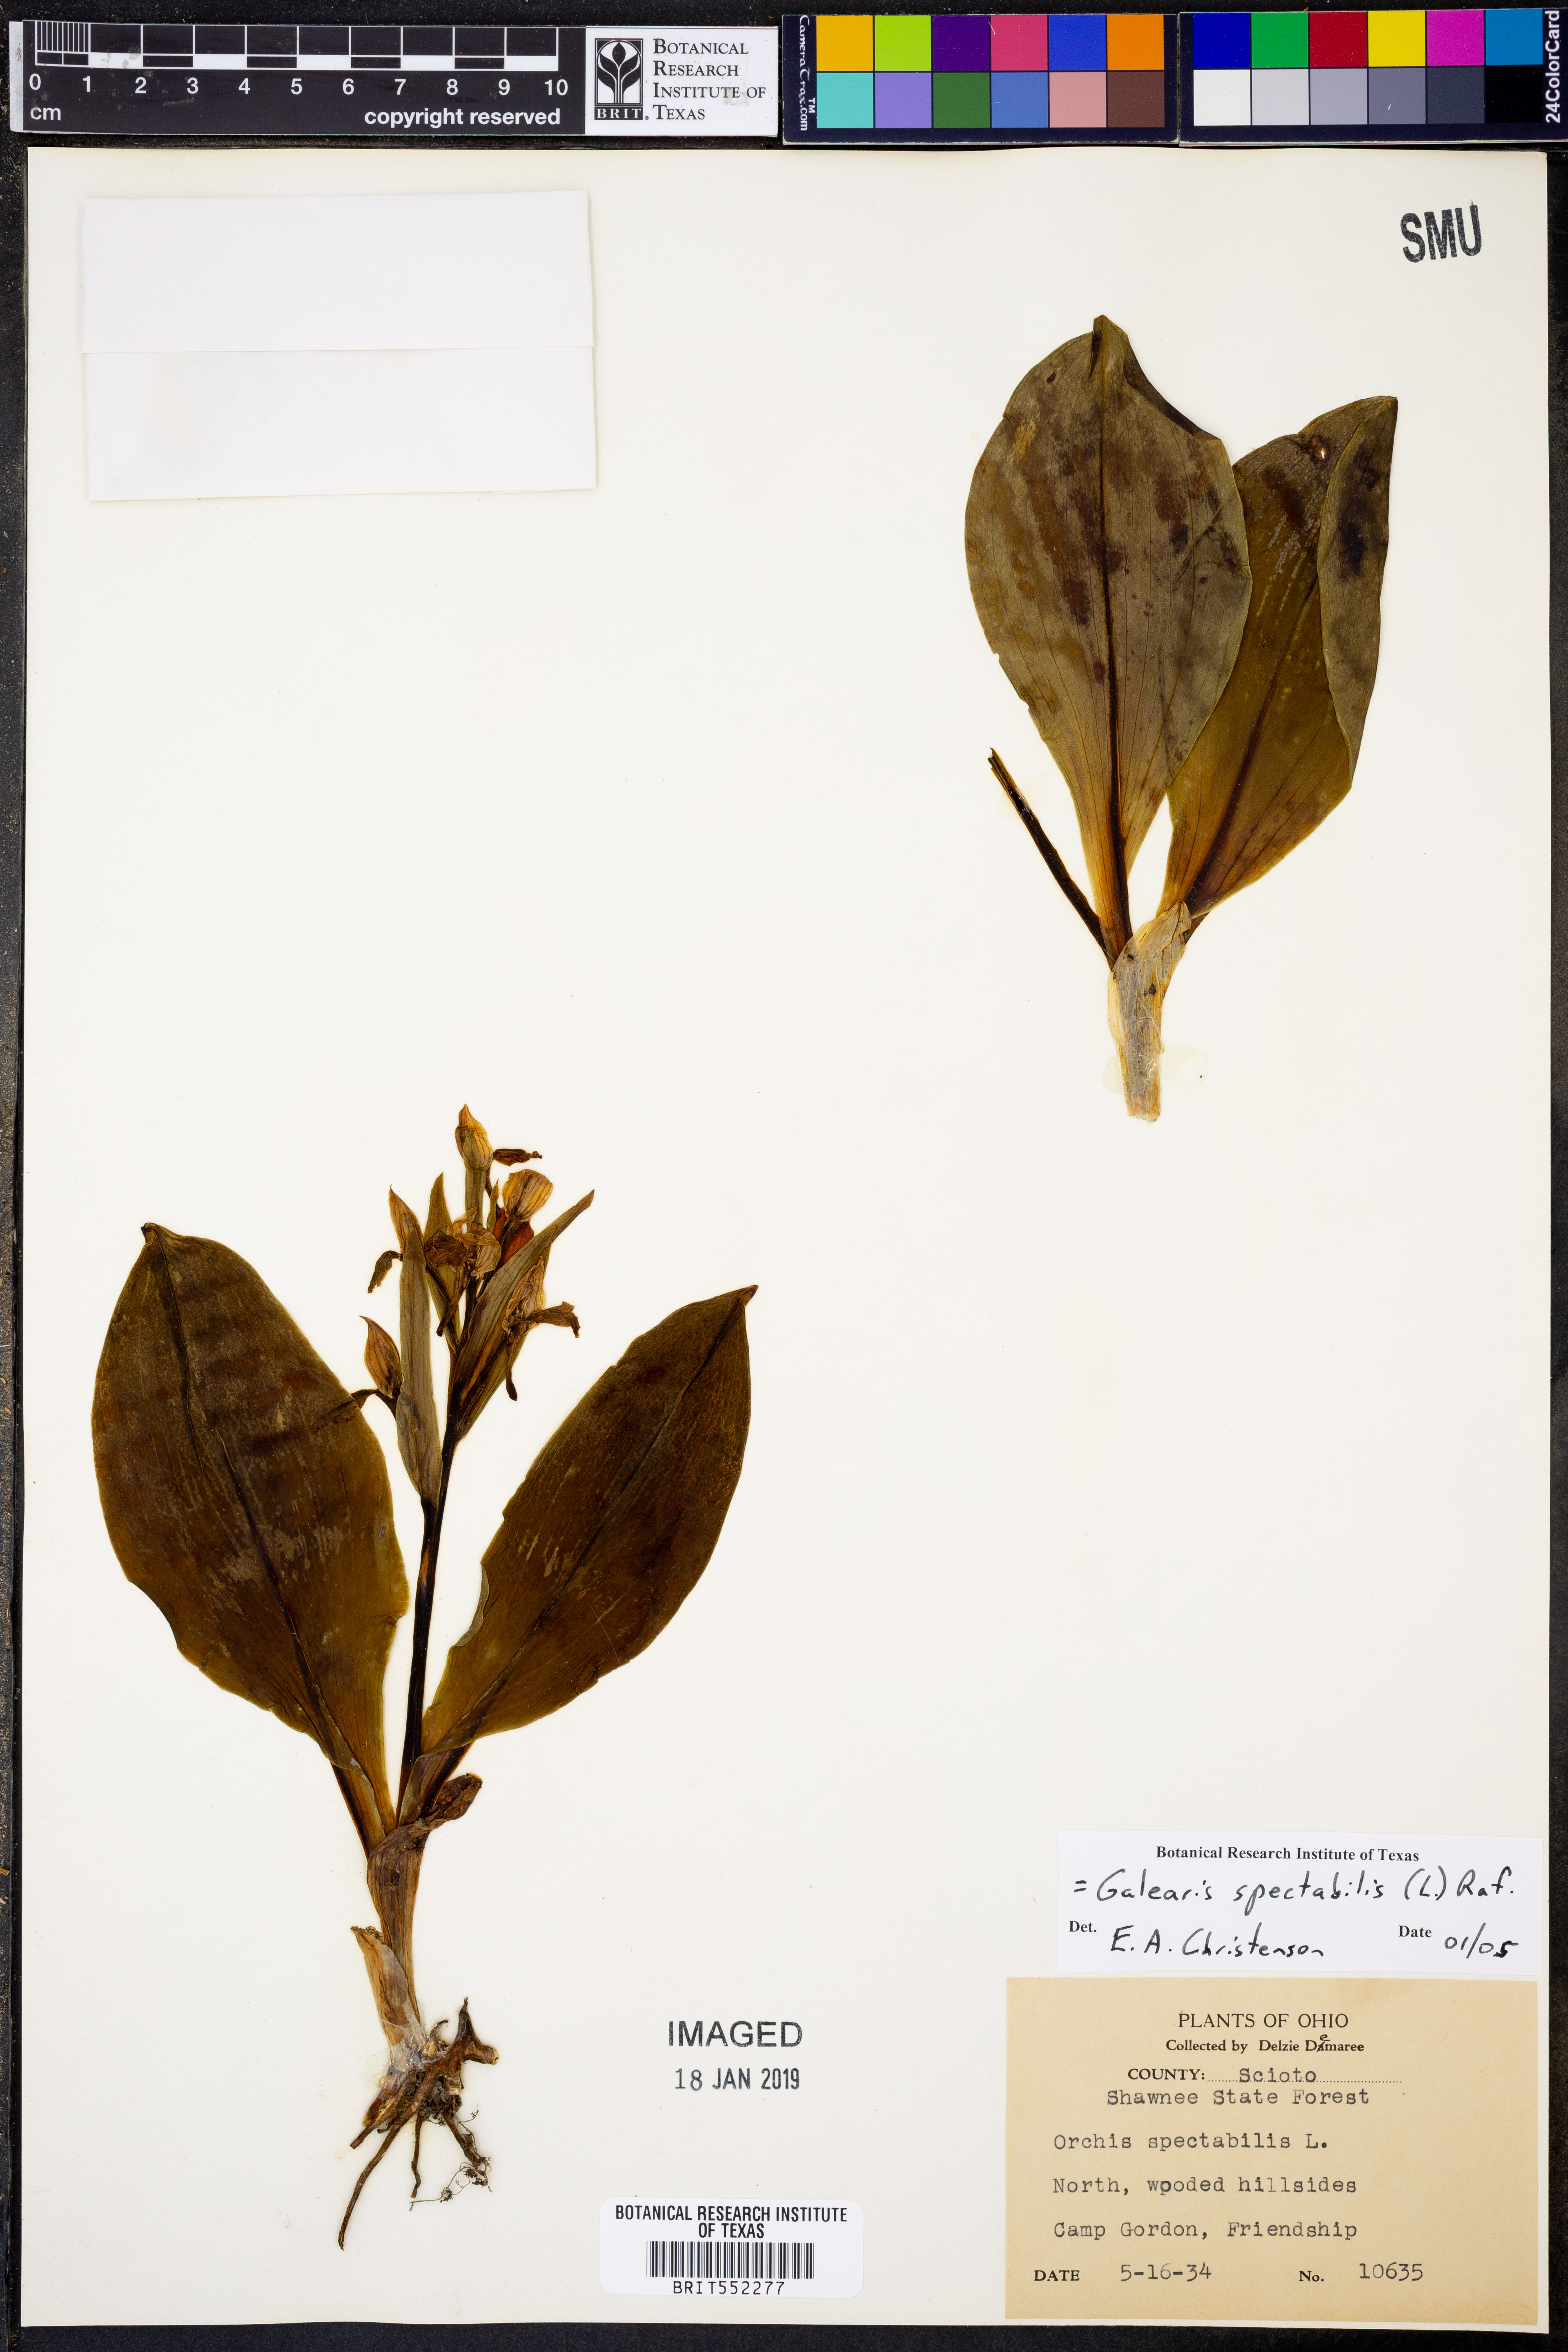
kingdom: Plantae
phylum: Tracheophyta
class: Liliopsida
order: Asparagales
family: Orchidaceae
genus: Galearis
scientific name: Galearis spectabilis
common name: Purple-hooded orchis
